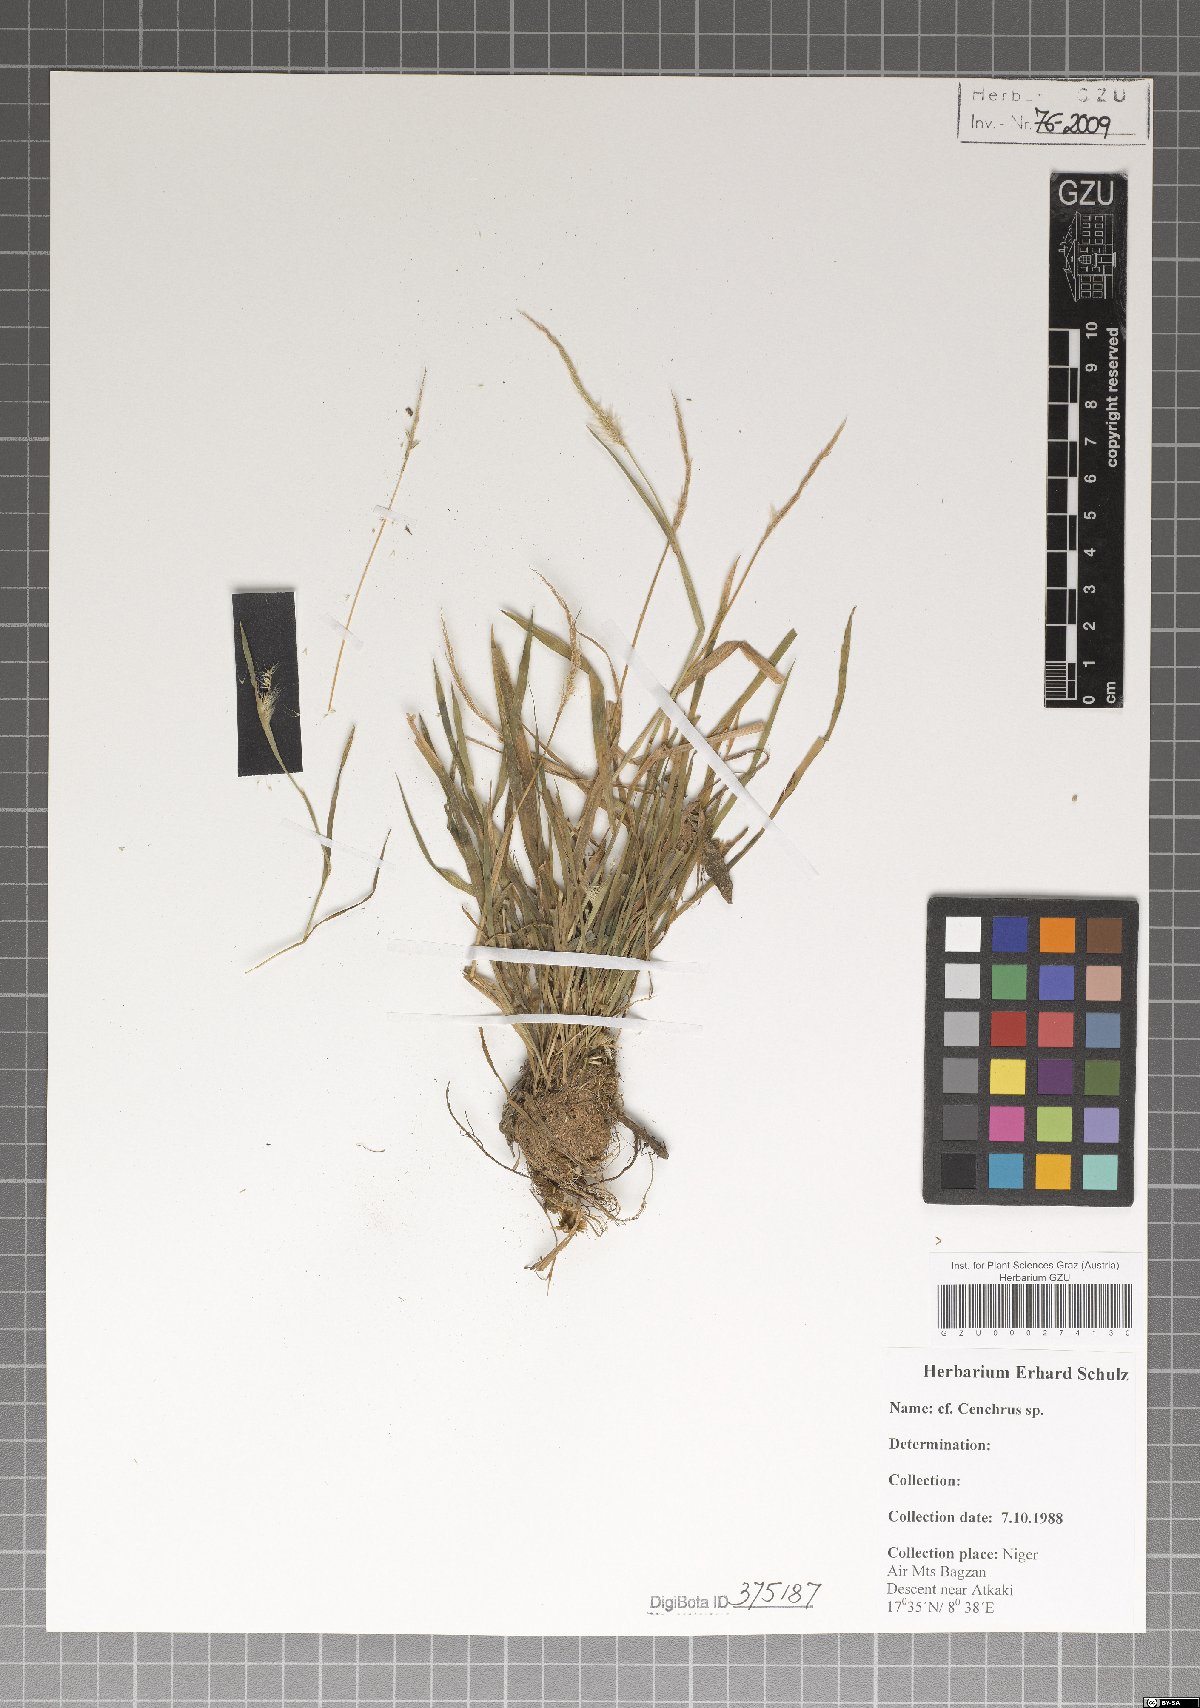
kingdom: Plantae
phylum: Tracheophyta
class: Liliopsida
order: Poales
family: Poaceae
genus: Cenchrus
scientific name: Cenchrus
